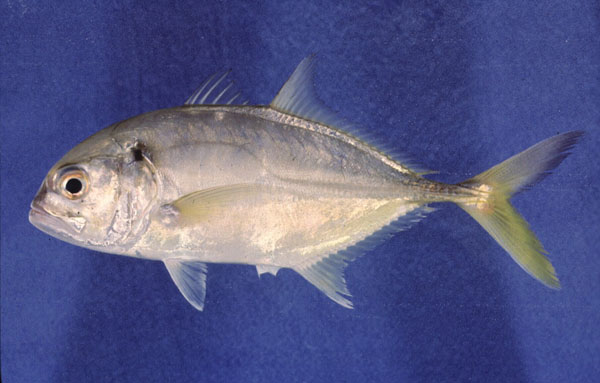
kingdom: Animalia
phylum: Chordata
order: Perciformes
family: Carangidae
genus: Caranx
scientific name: Caranx tille
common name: Tille trevally
